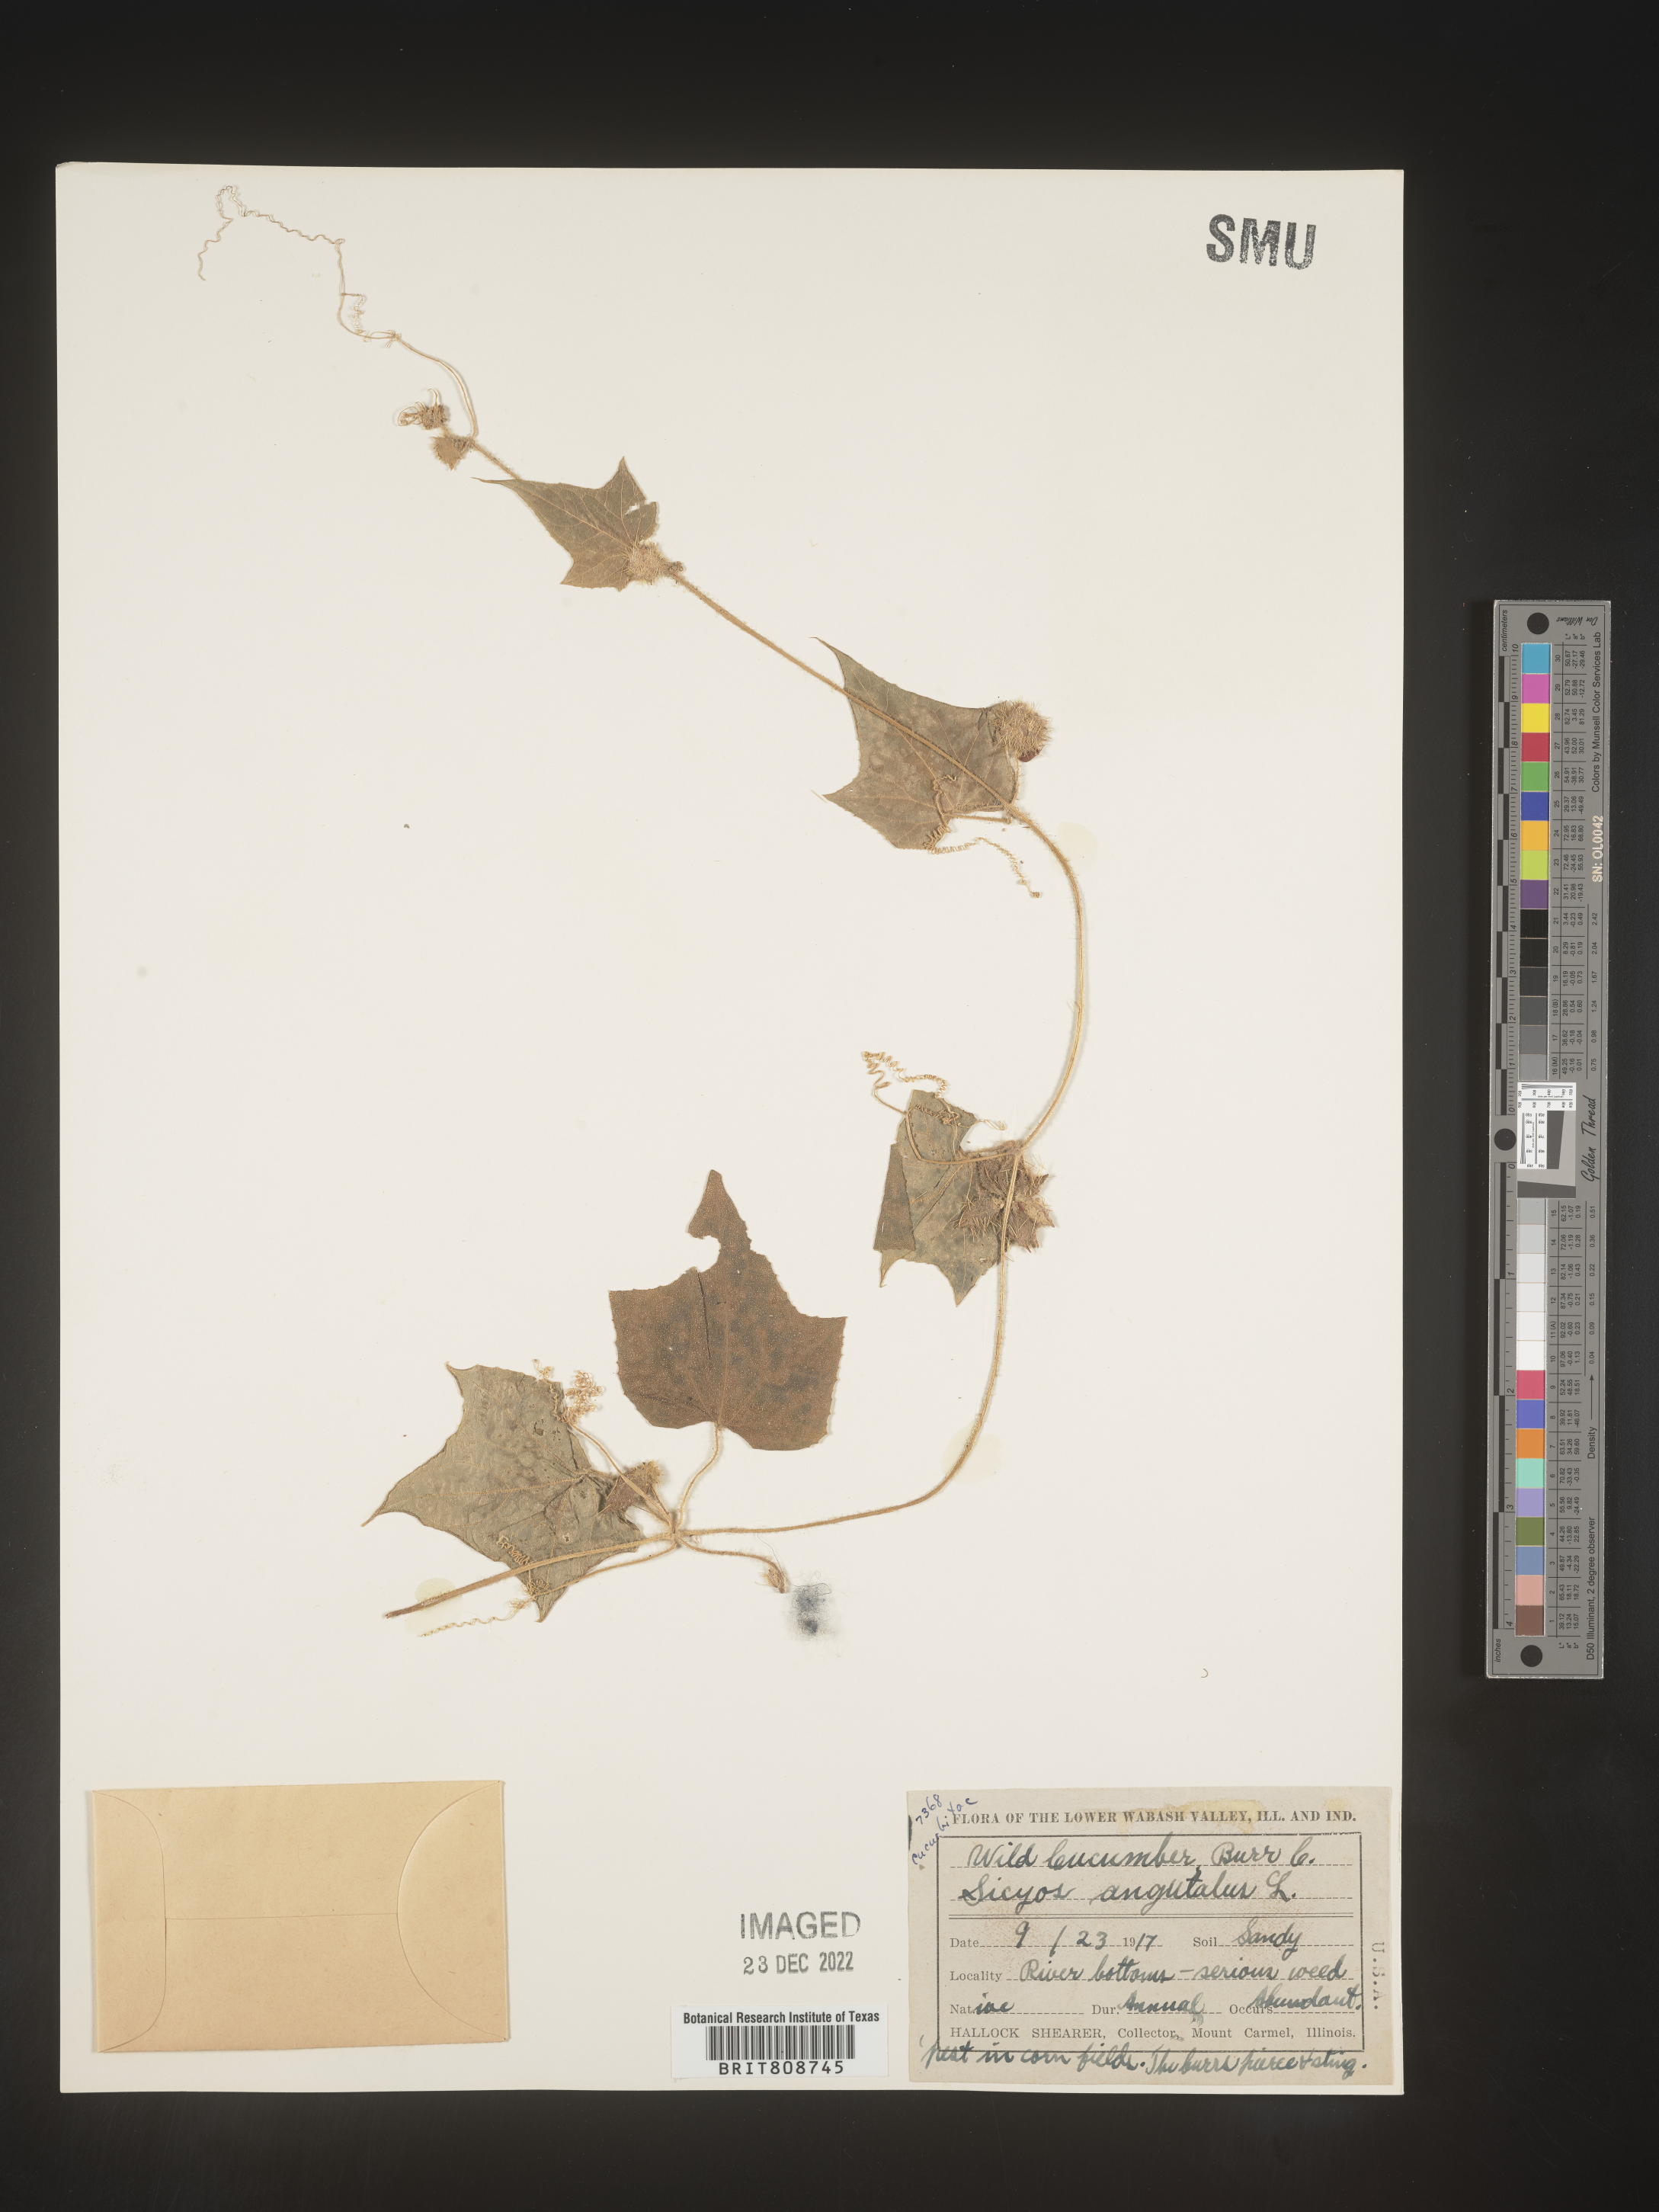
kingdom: Plantae
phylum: Tracheophyta
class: Magnoliopsida
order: Cucurbitales
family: Cucurbitaceae
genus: Sicyos
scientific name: Sicyos angulatus
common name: Angled burr cucumber
